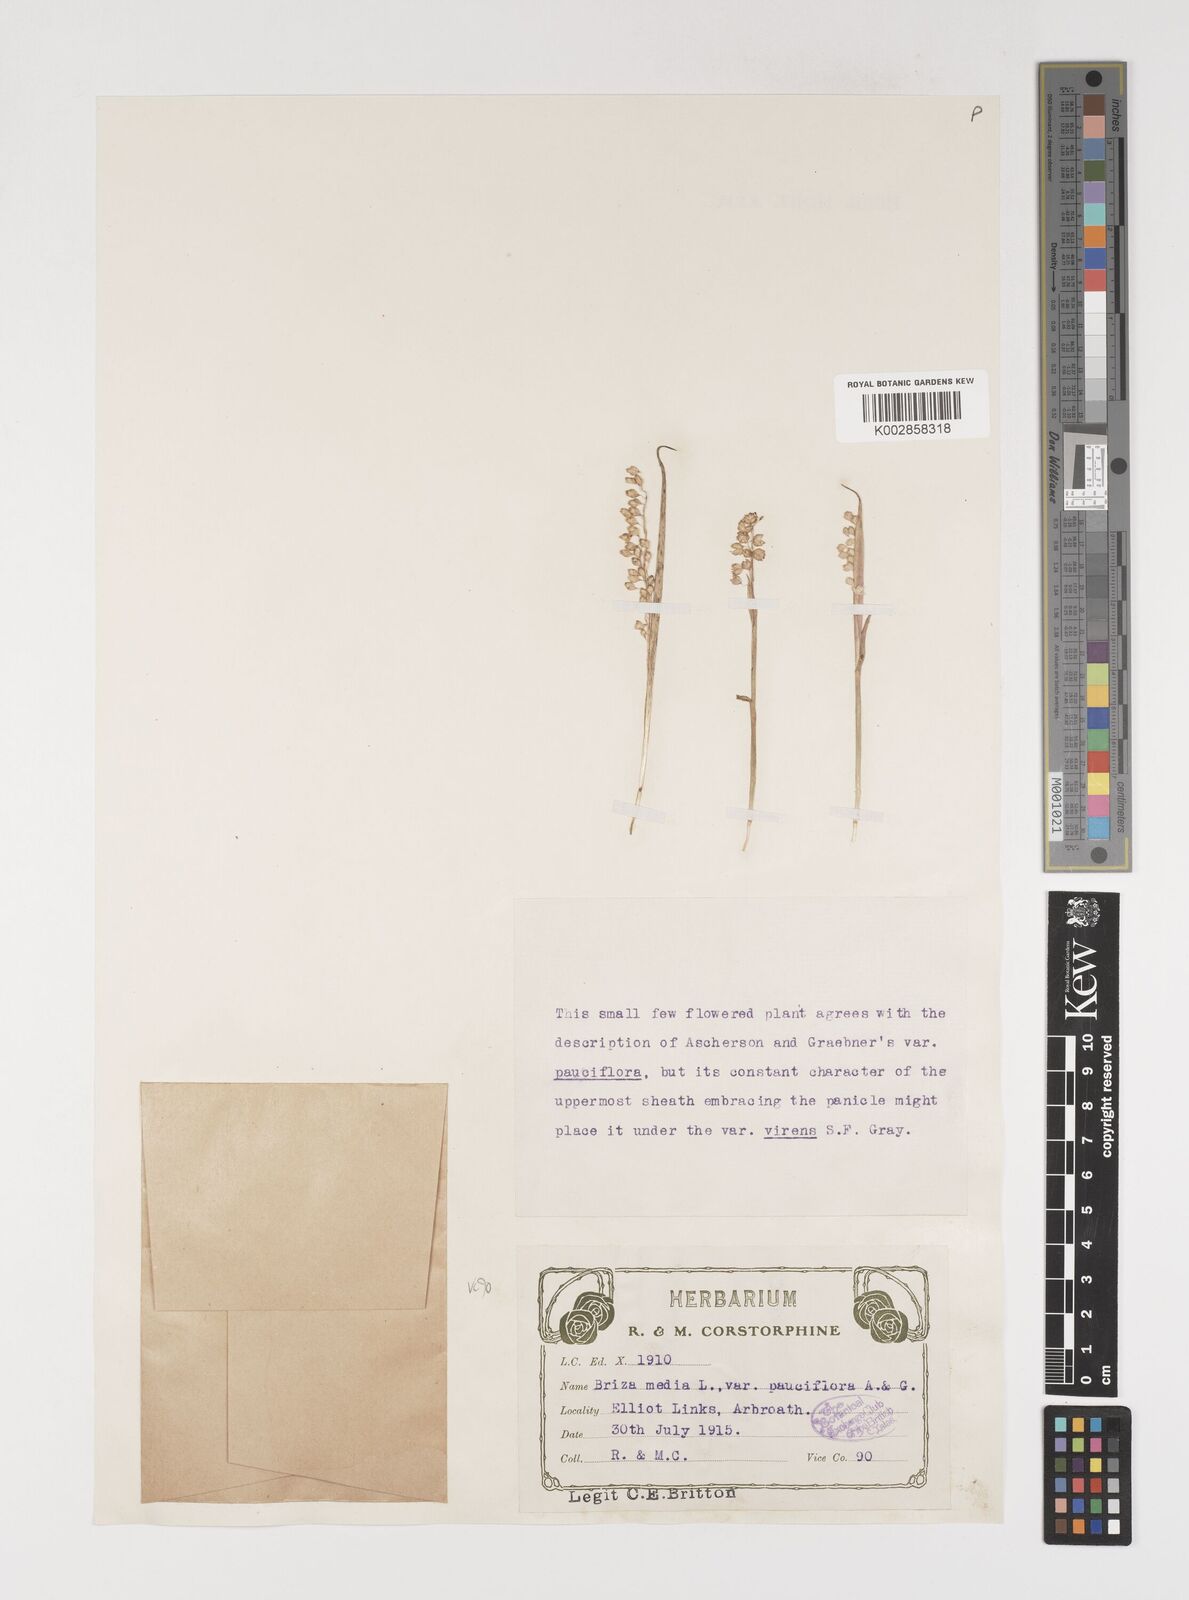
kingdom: Plantae
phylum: Tracheophyta
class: Liliopsida
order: Poales
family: Poaceae
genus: Briza
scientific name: Briza media
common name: Quaking grass
